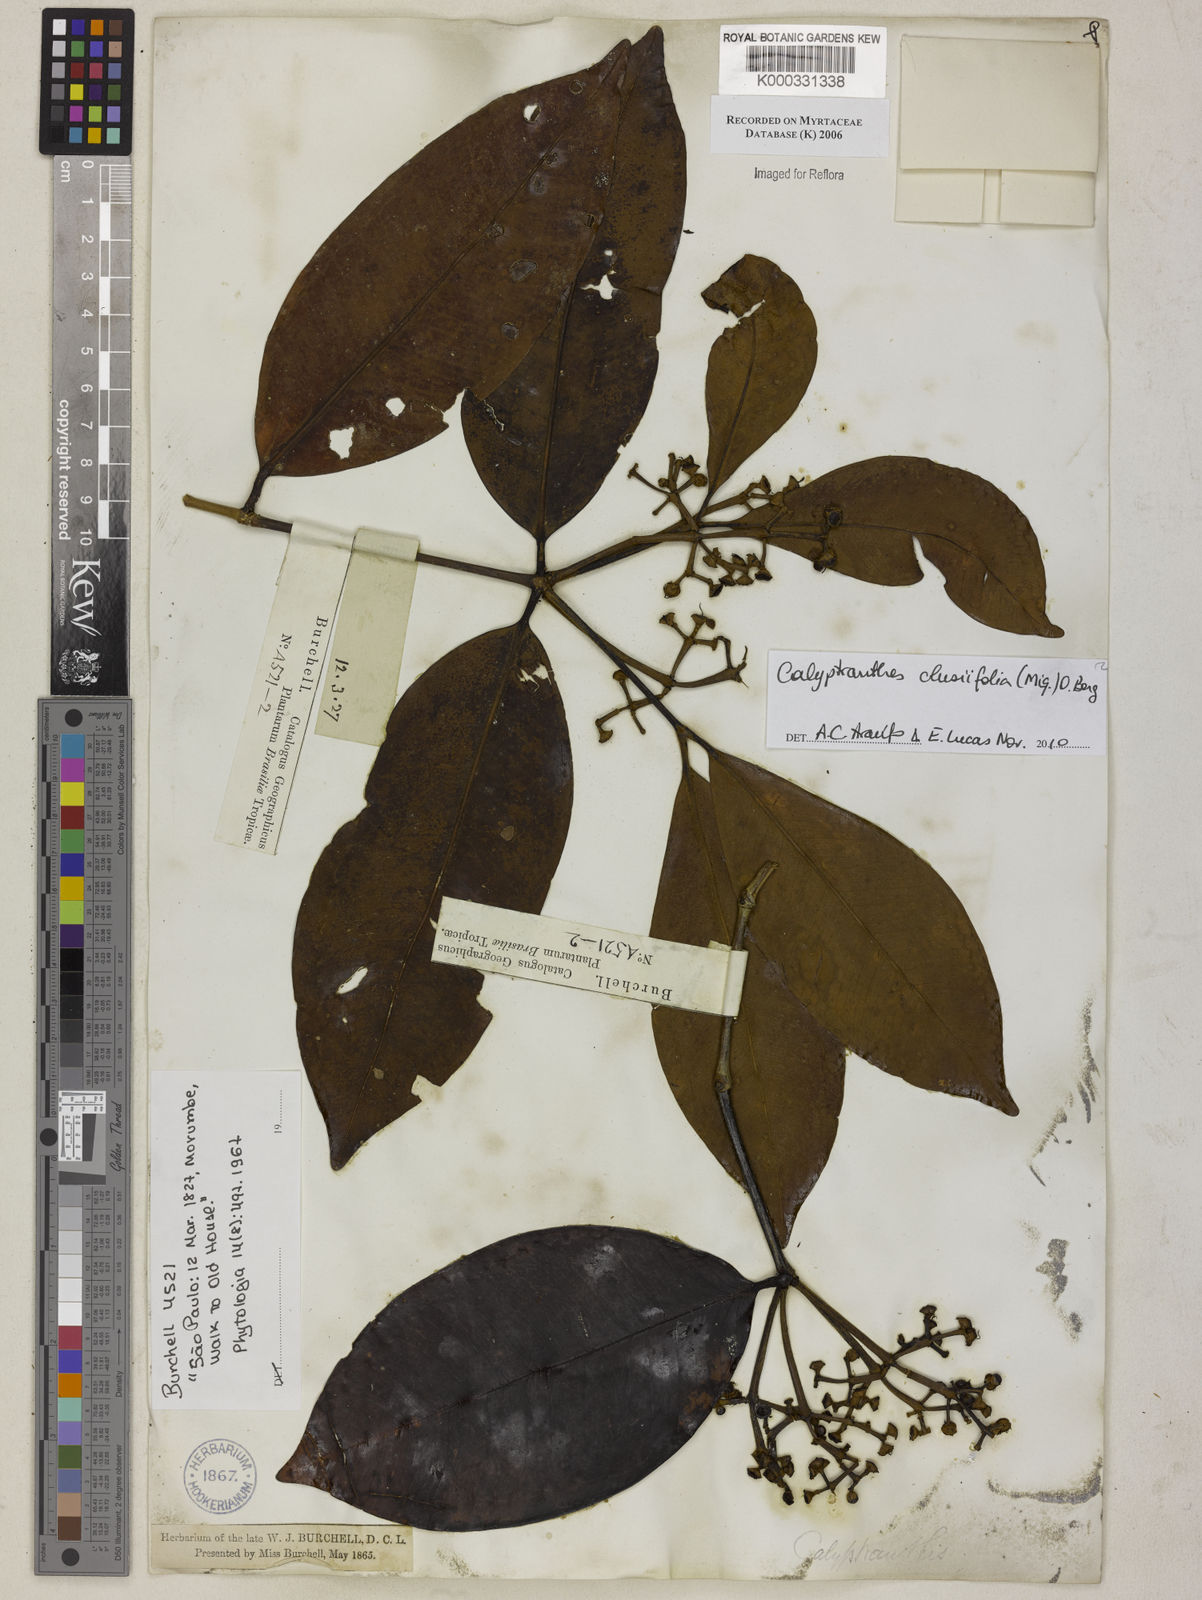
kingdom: Plantae
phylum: Tracheophyta
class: Magnoliopsida
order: Myrtales
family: Myrtaceae
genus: Calyptranthes
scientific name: Calyptranthes
